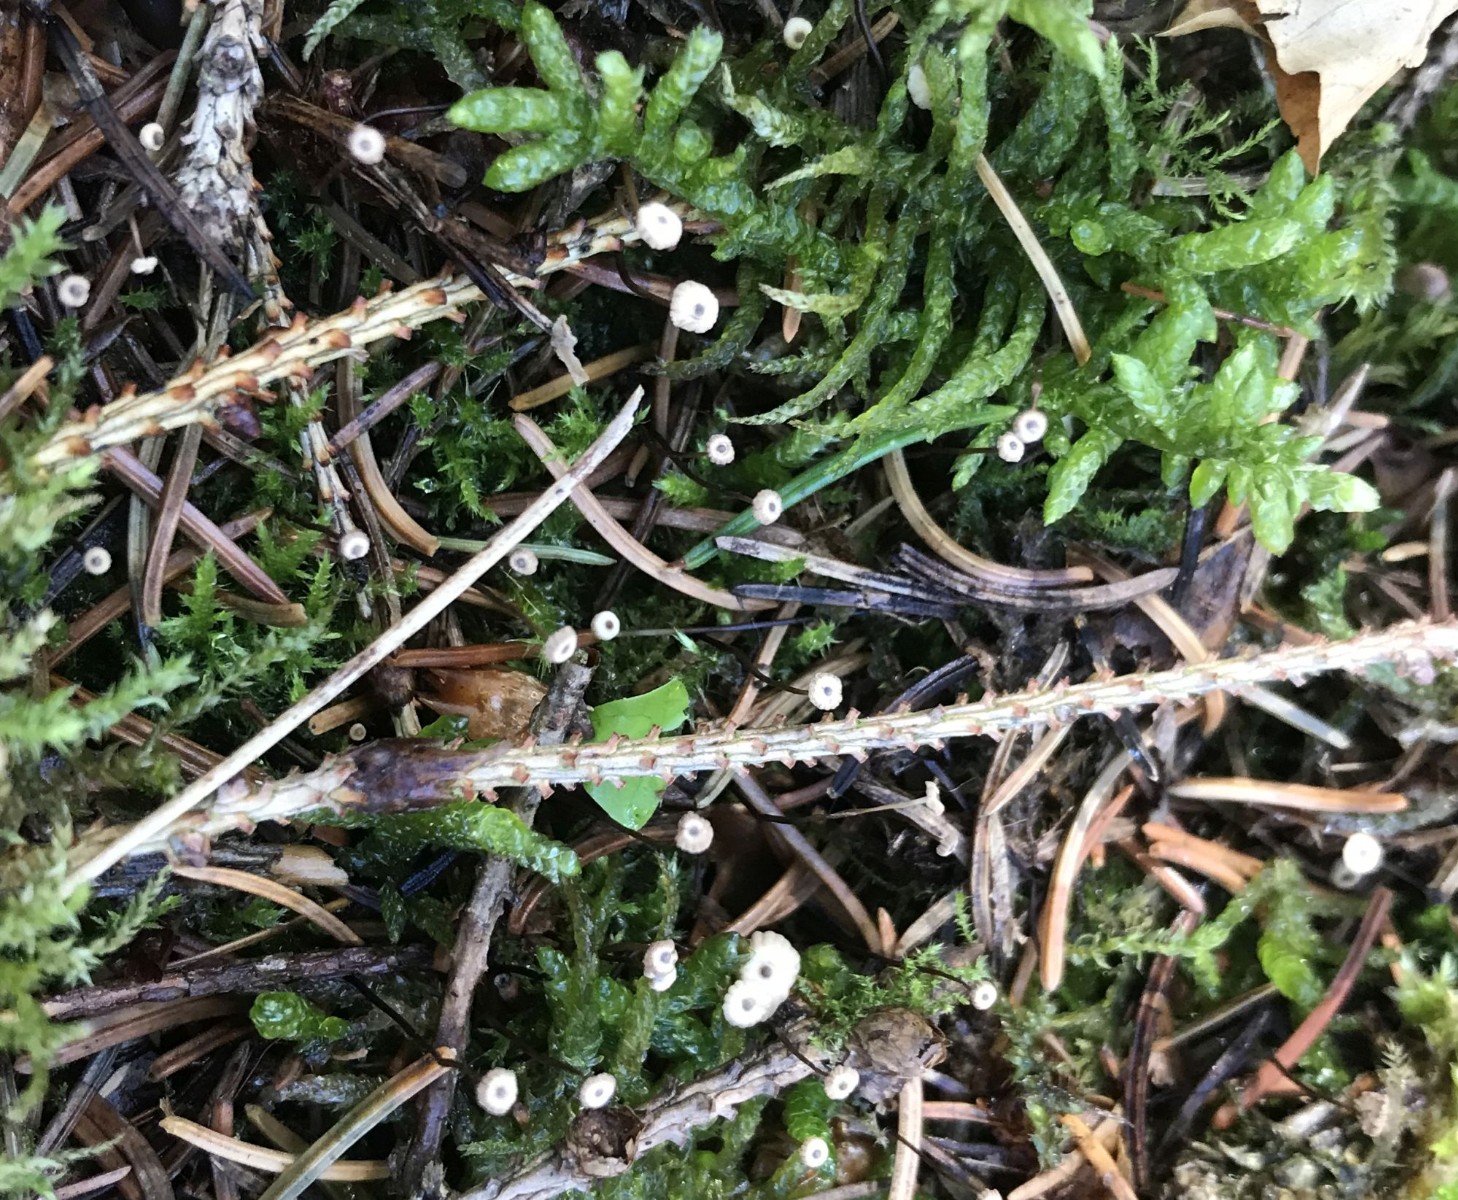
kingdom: Fungi
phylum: Basidiomycota
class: Agaricomycetes
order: Agaricales
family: Marasmiaceae
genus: Marasmius
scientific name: Marasmius wettsteinii
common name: Wettsteins bruskhat
